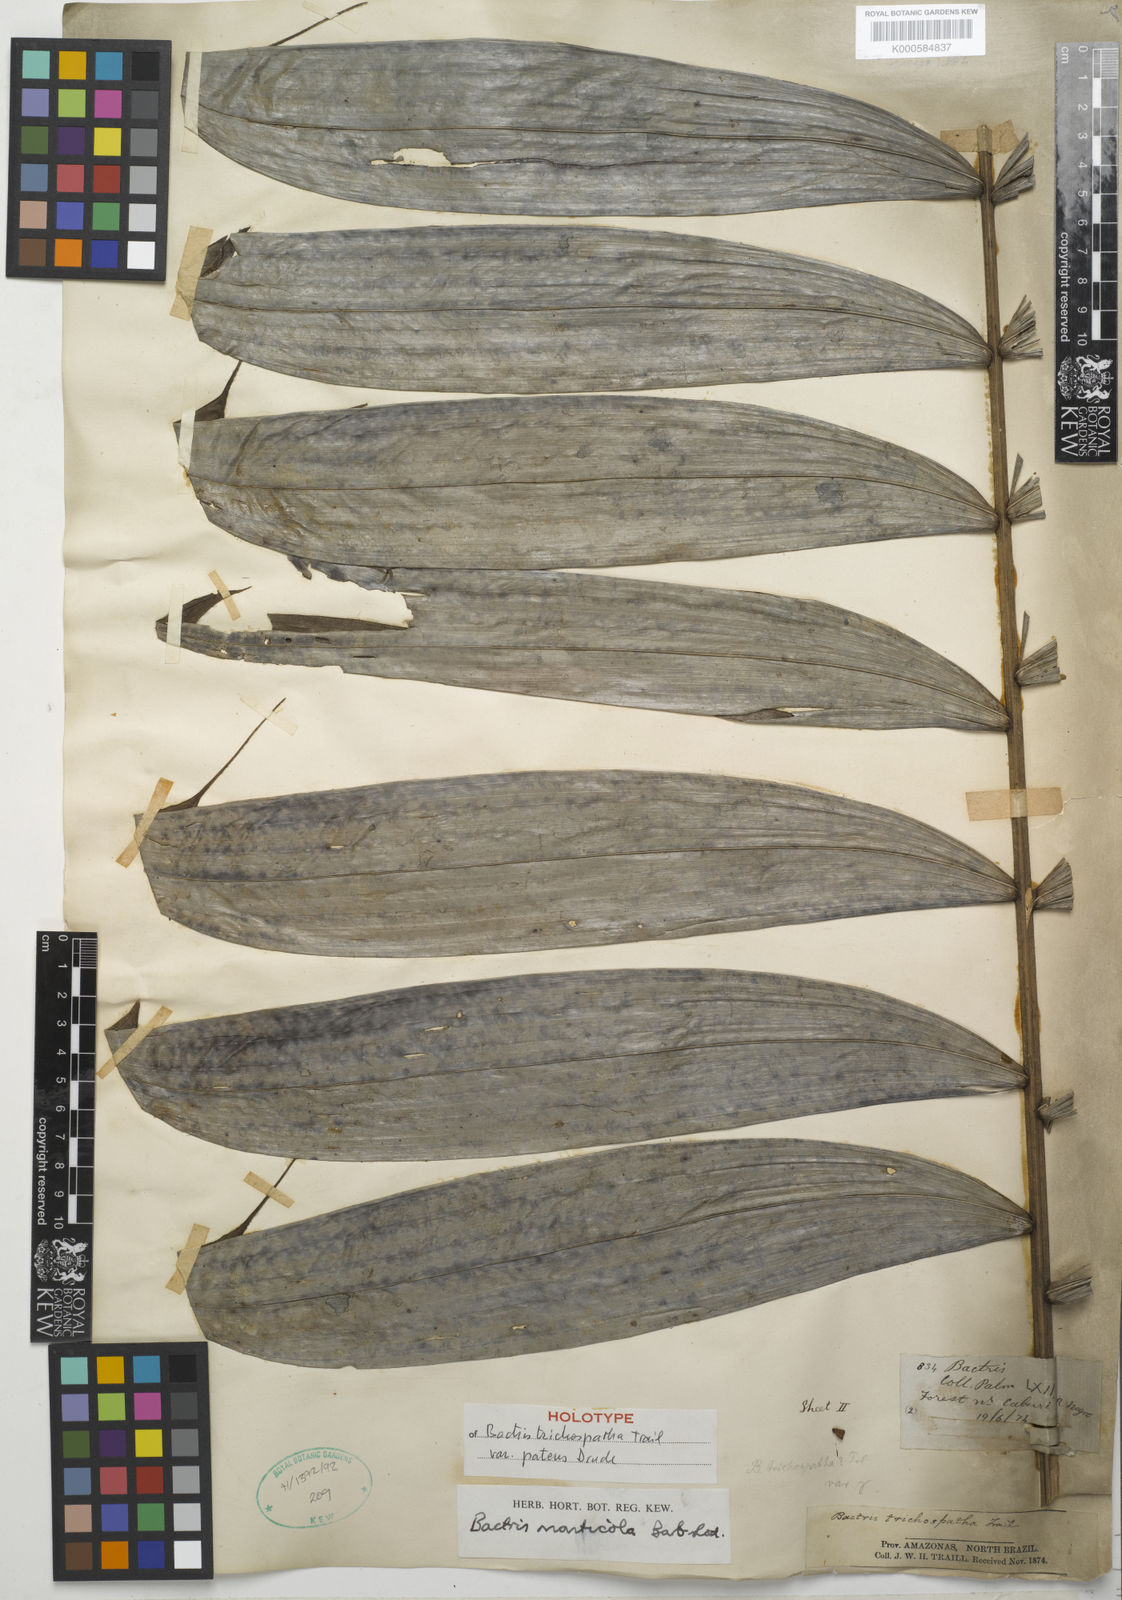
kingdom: Plantae
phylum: Tracheophyta
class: Liliopsida
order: Arecales
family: Arecaceae
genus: Bactris
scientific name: Bactris maraja
